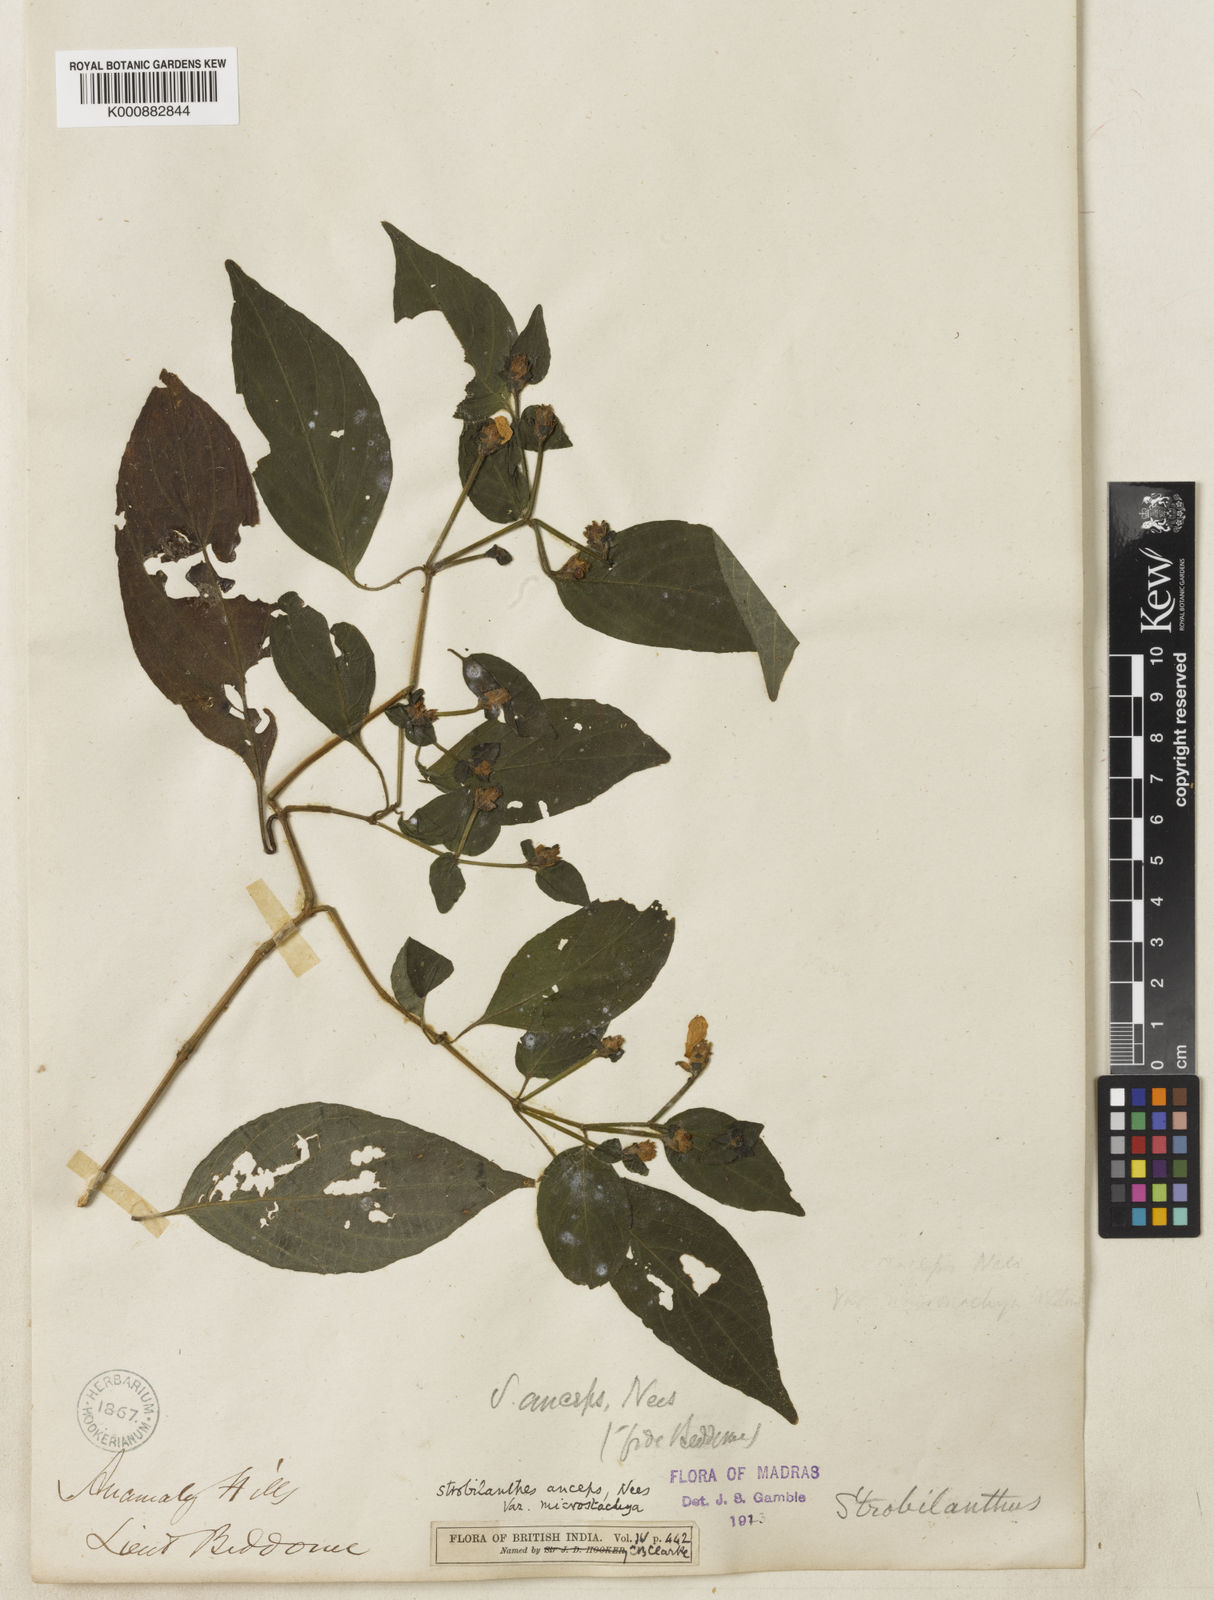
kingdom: Plantae
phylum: Tracheophyta
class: Magnoliopsida
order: Lamiales
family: Acanthaceae
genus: Strobilanthes
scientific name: Strobilanthes
